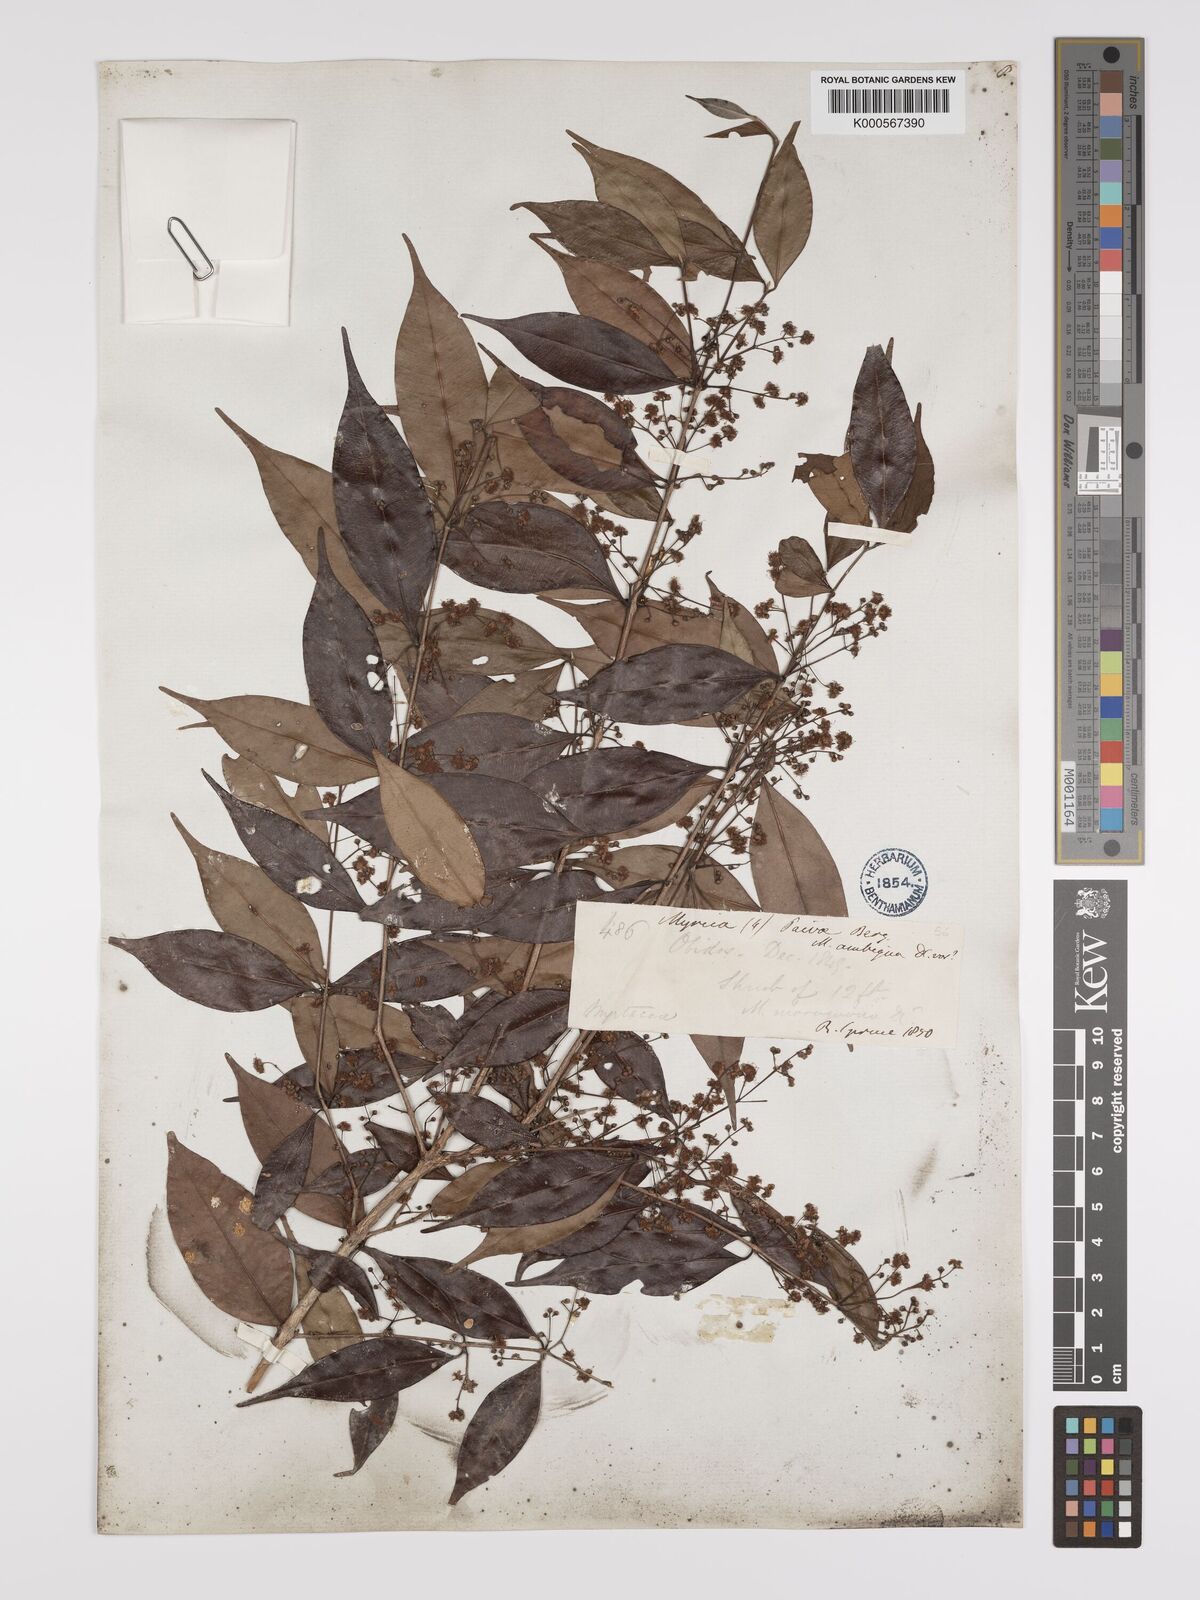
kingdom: Plantae
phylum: Tracheophyta
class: Magnoliopsida
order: Myrtales
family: Myrtaceae
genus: Myrcia
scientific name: Myrcia paivae
